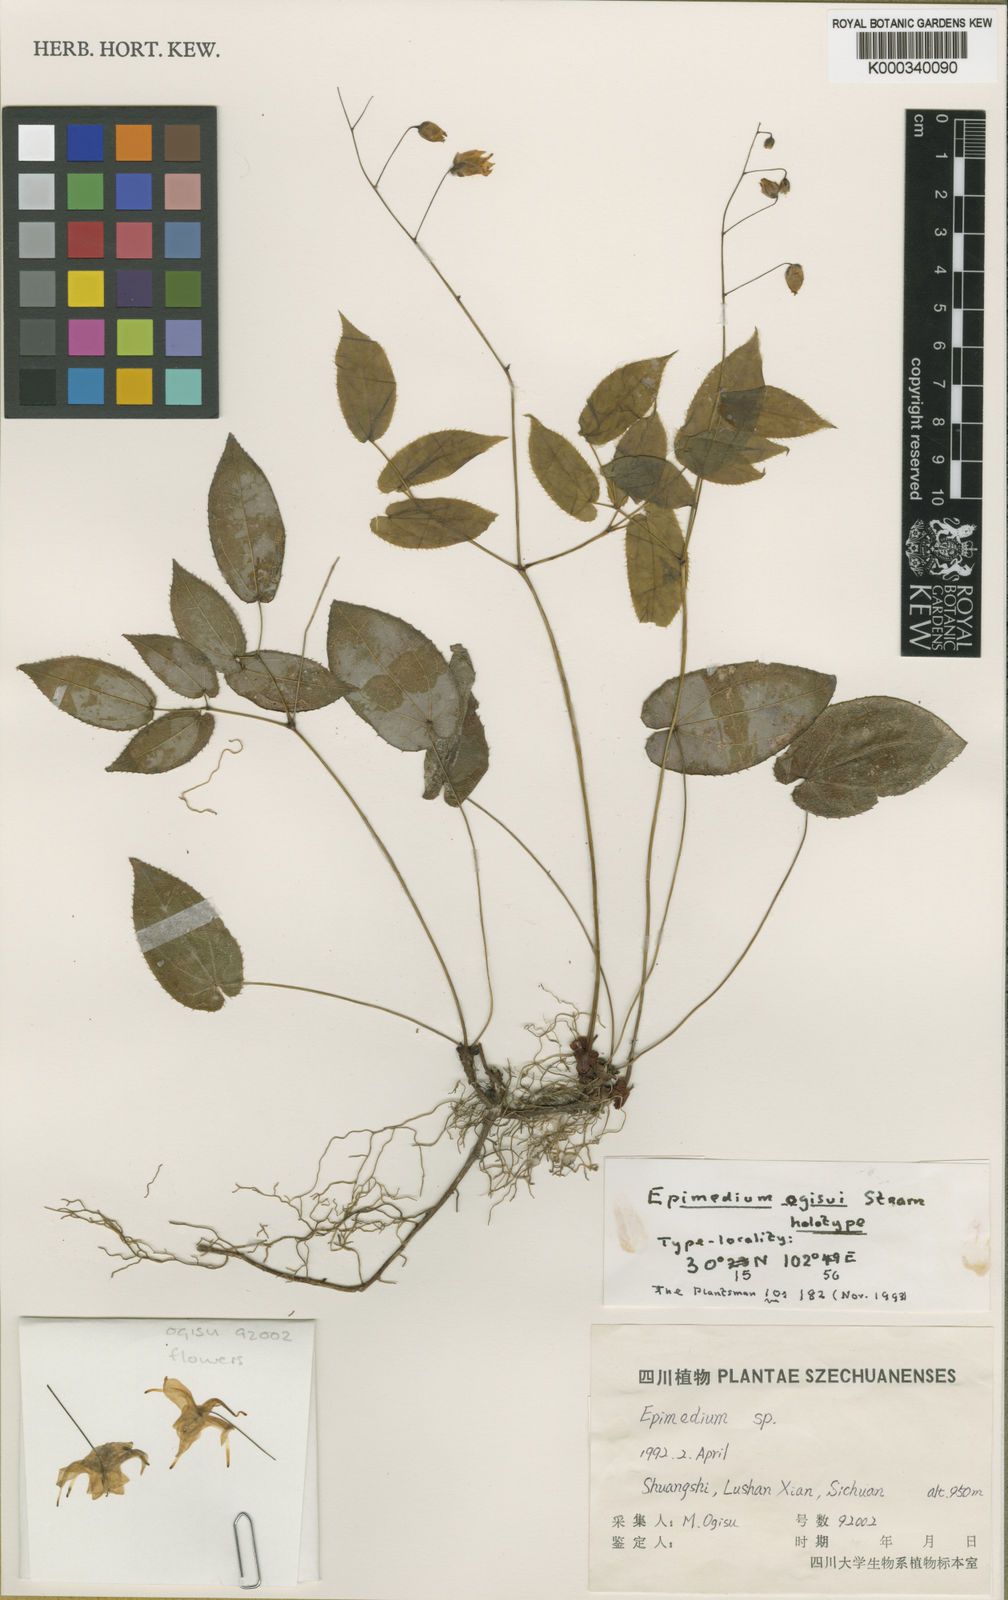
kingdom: Plantae
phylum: Tracheophyta
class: Magnoliopsida
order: Ranunculales
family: Berberidaceae
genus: Epimedium
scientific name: Epimedium ogisui
